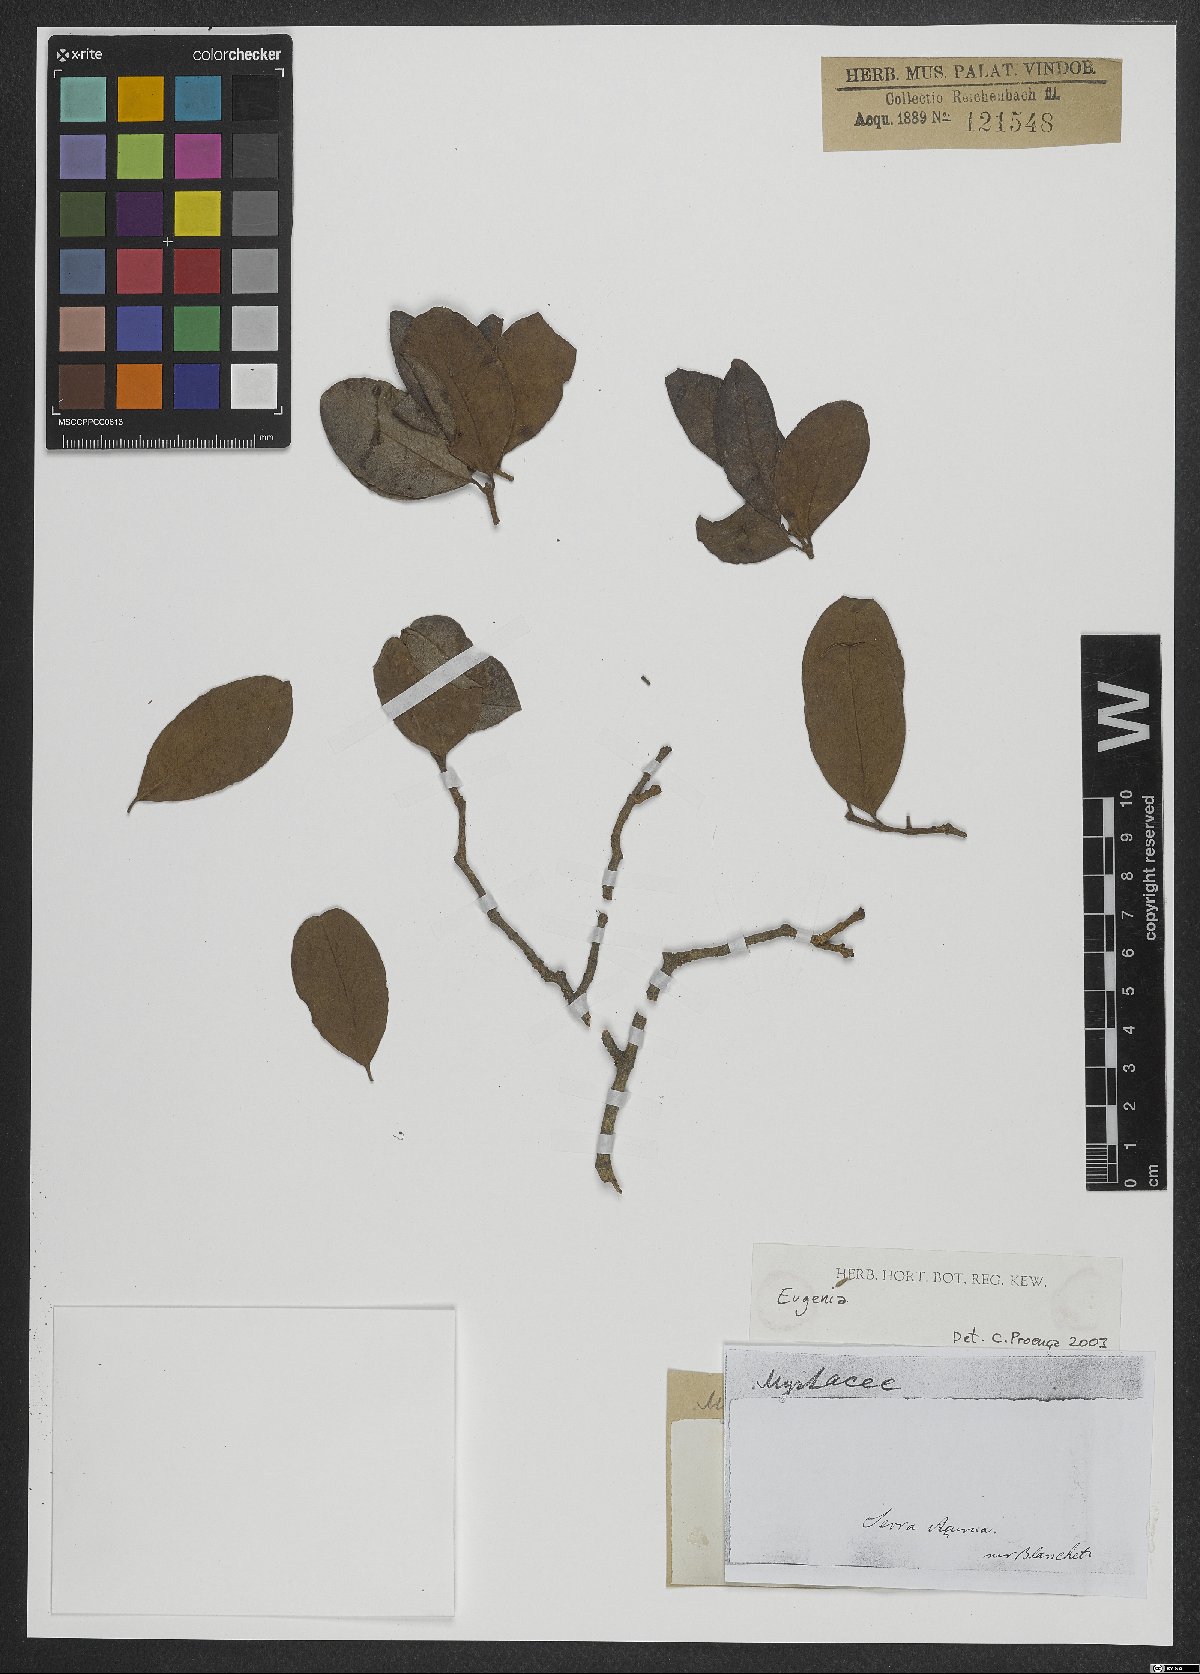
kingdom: Plantae
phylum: Tracheophyta
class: Magnoliopsida
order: Myrtales
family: Myrtaceae
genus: Eugenia
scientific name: Eugenia
